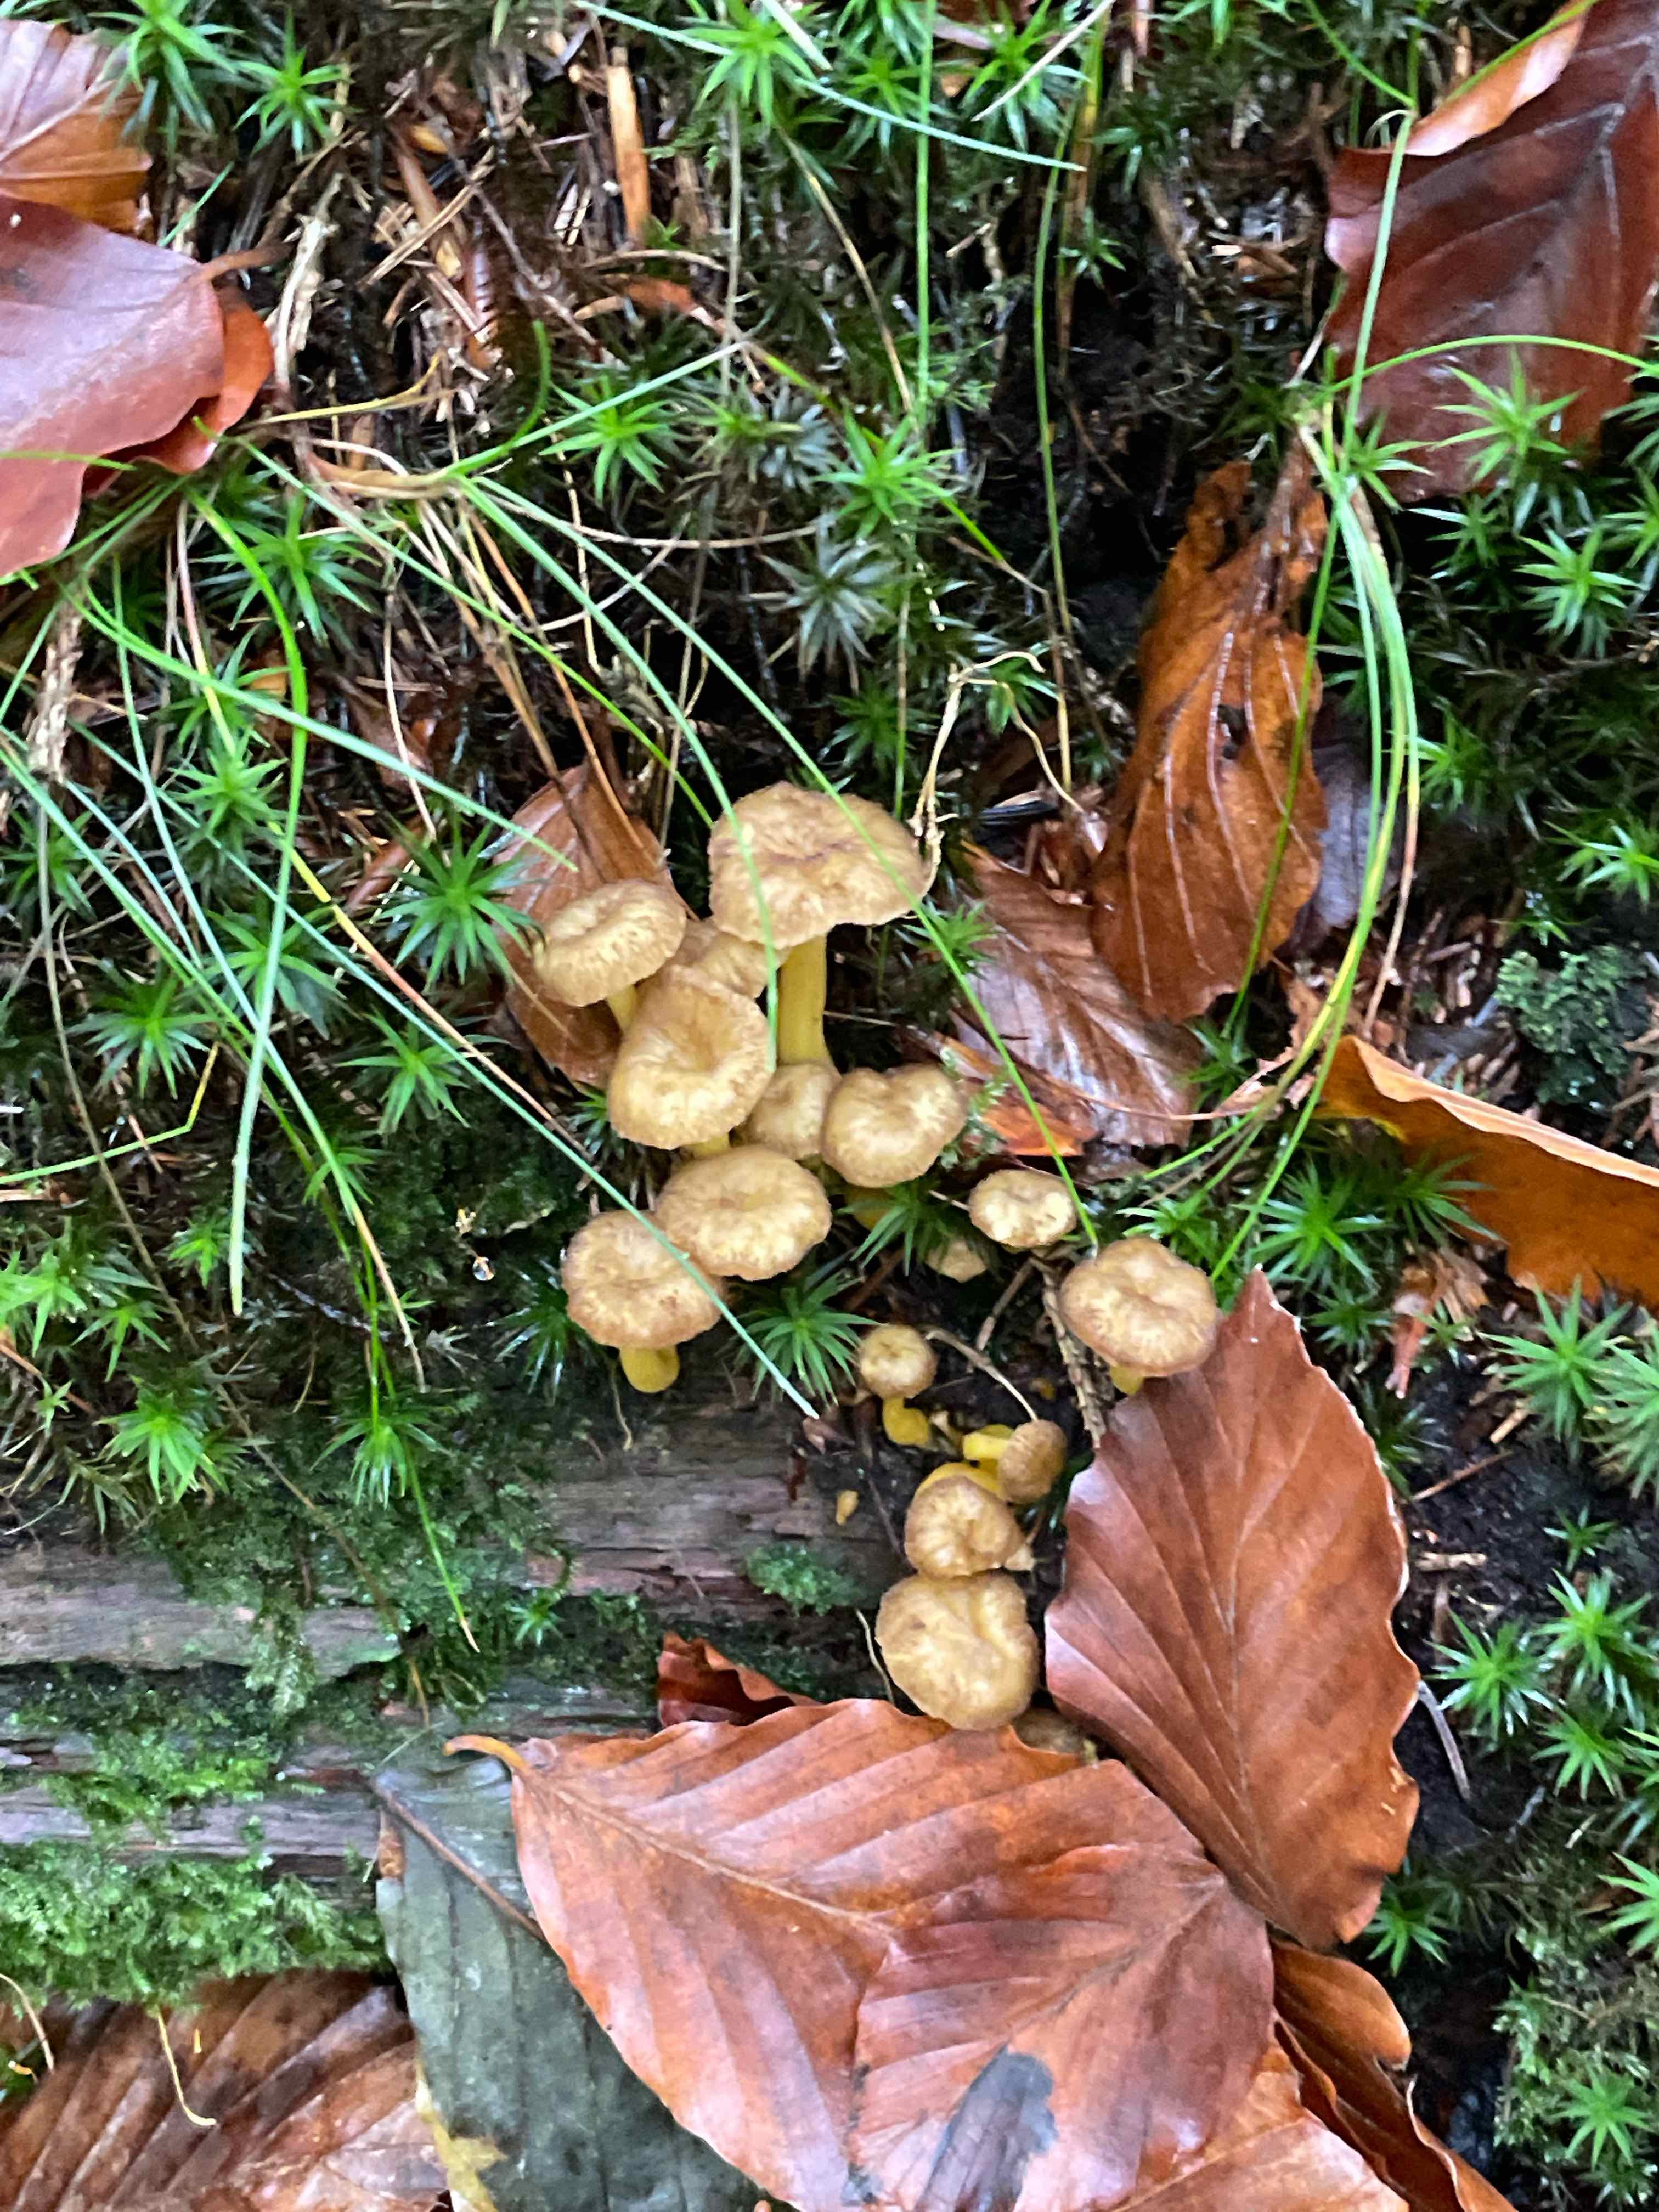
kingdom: Fungi
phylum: Basidiomycota
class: Agaricomycetes
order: Cantharellales
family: Hydnaceae
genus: Craterellus
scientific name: Craterellus tubaeformis
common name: tragt-kantarel
